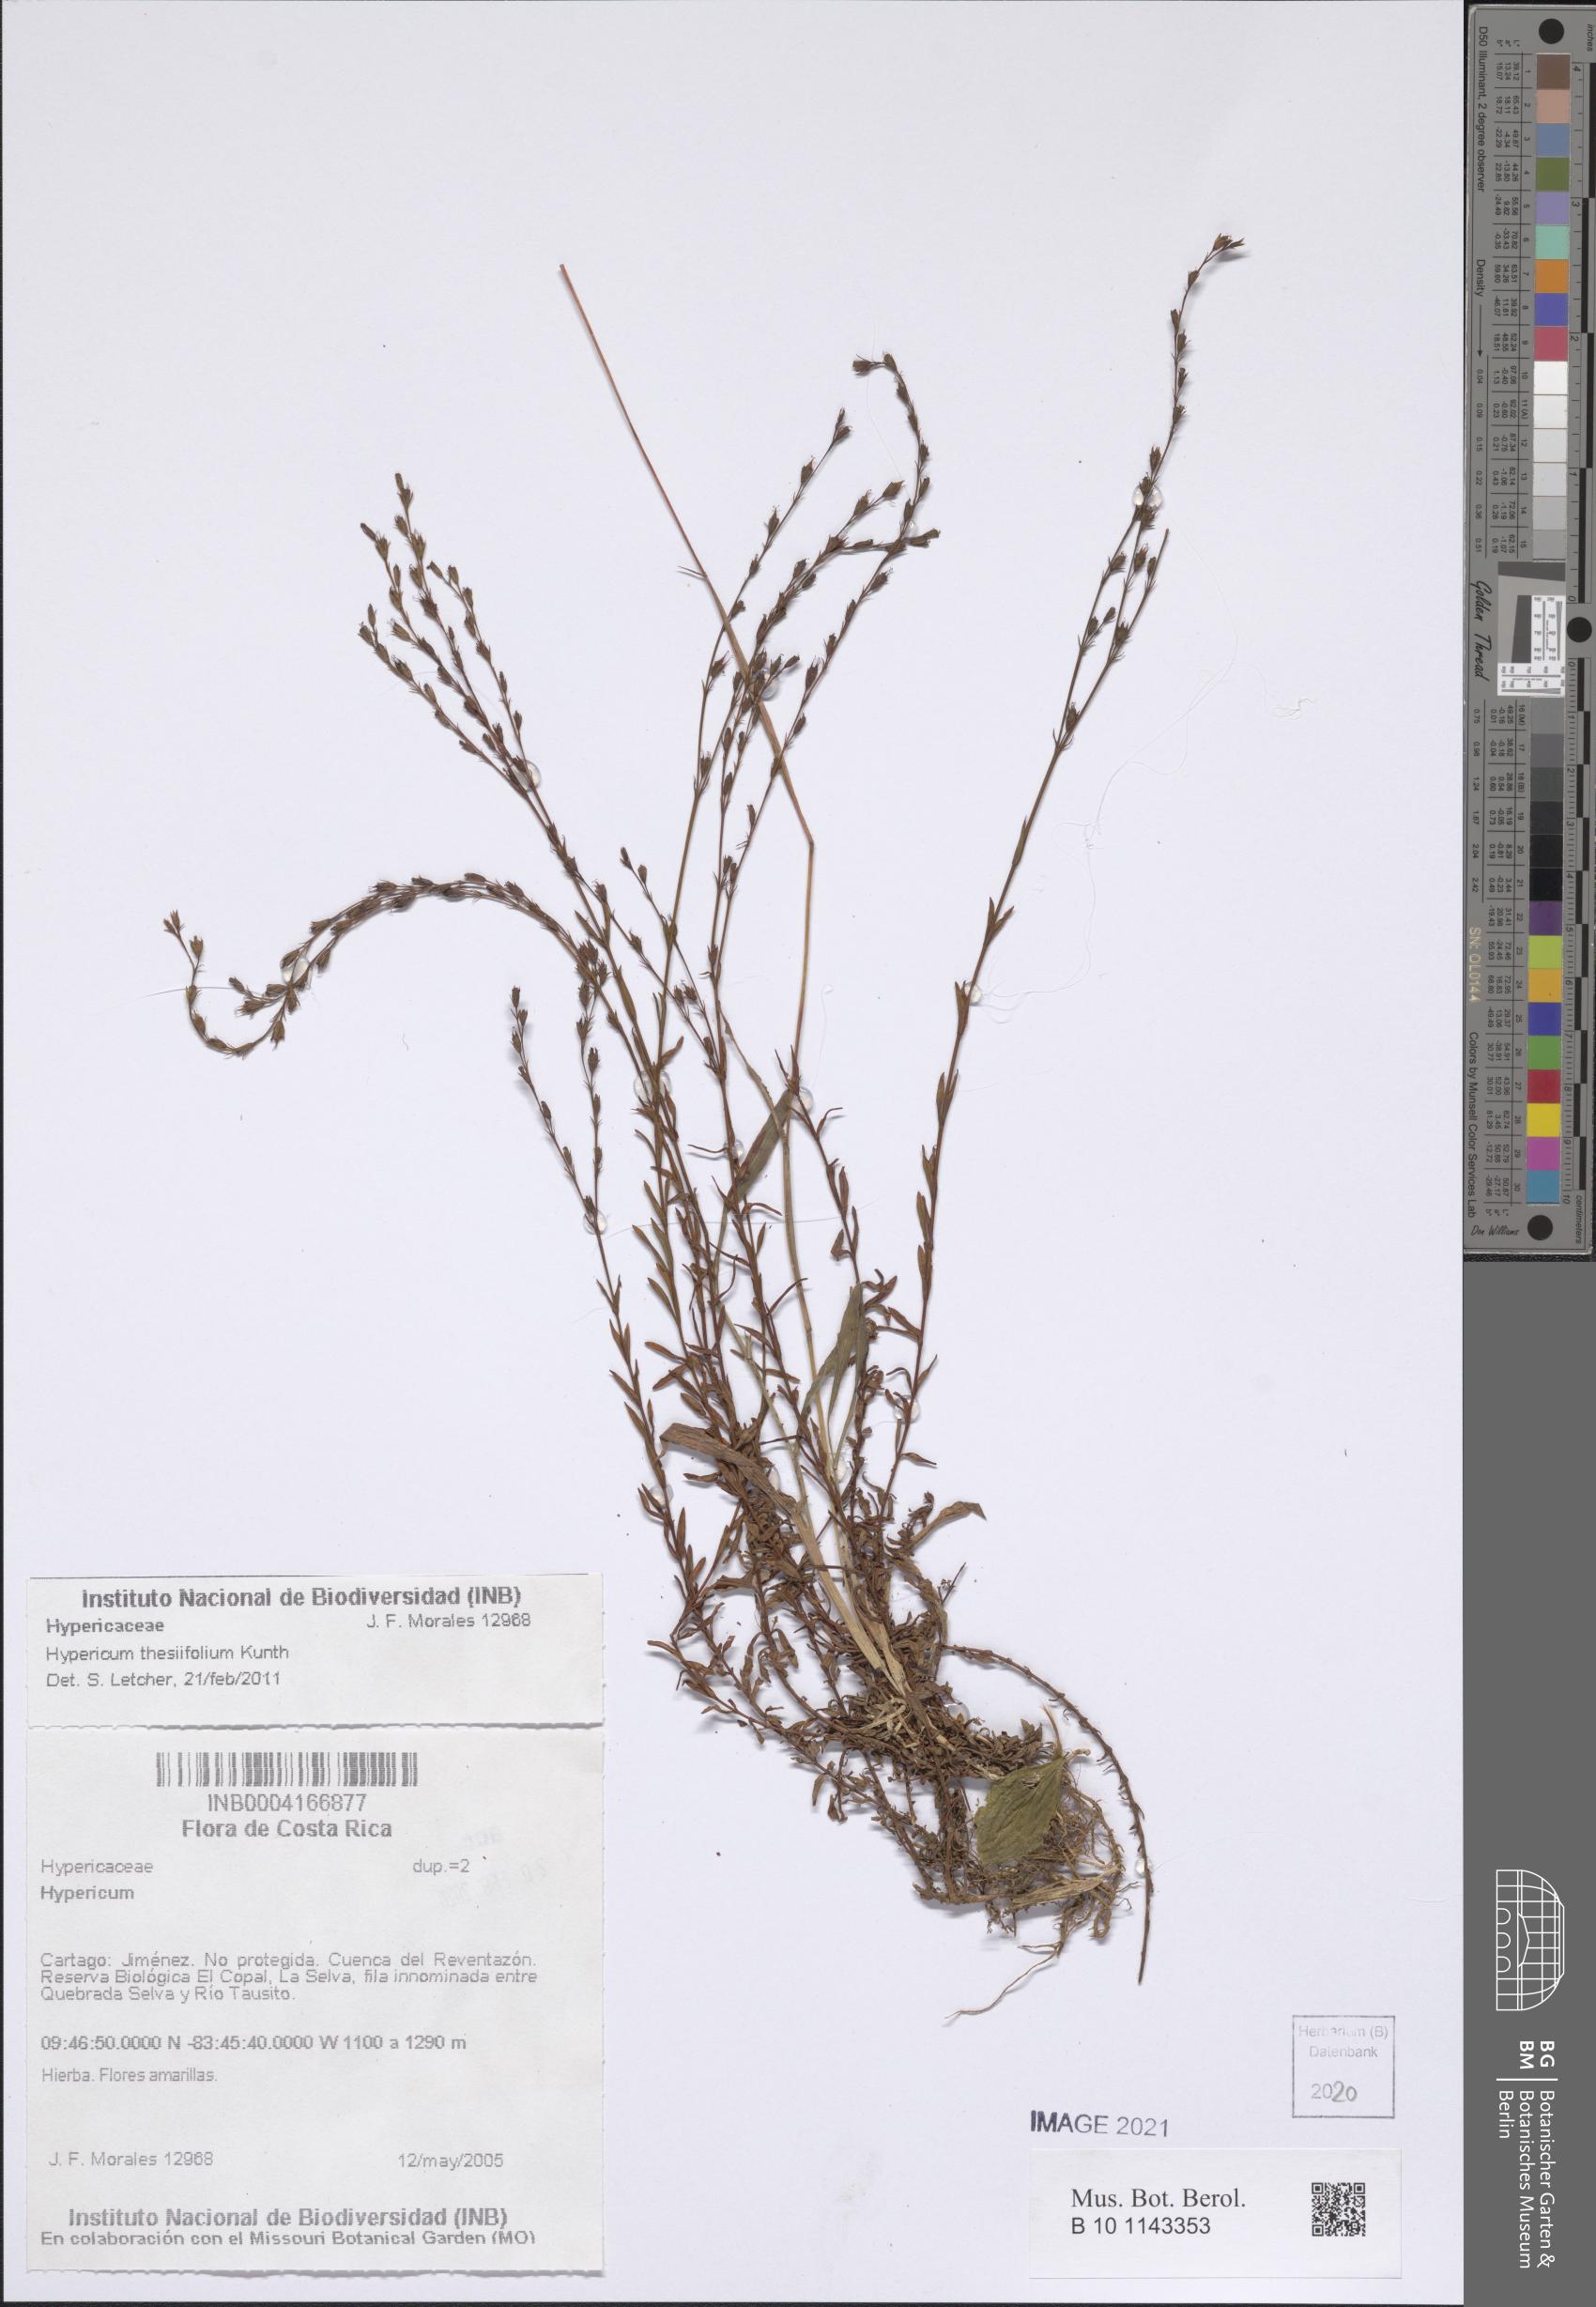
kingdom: Plantae
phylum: Tracheophyta
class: Magnoliopsida
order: Malpighiales
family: Hypericaceae
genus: Hypericum
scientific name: Hypericum thesiifolium
